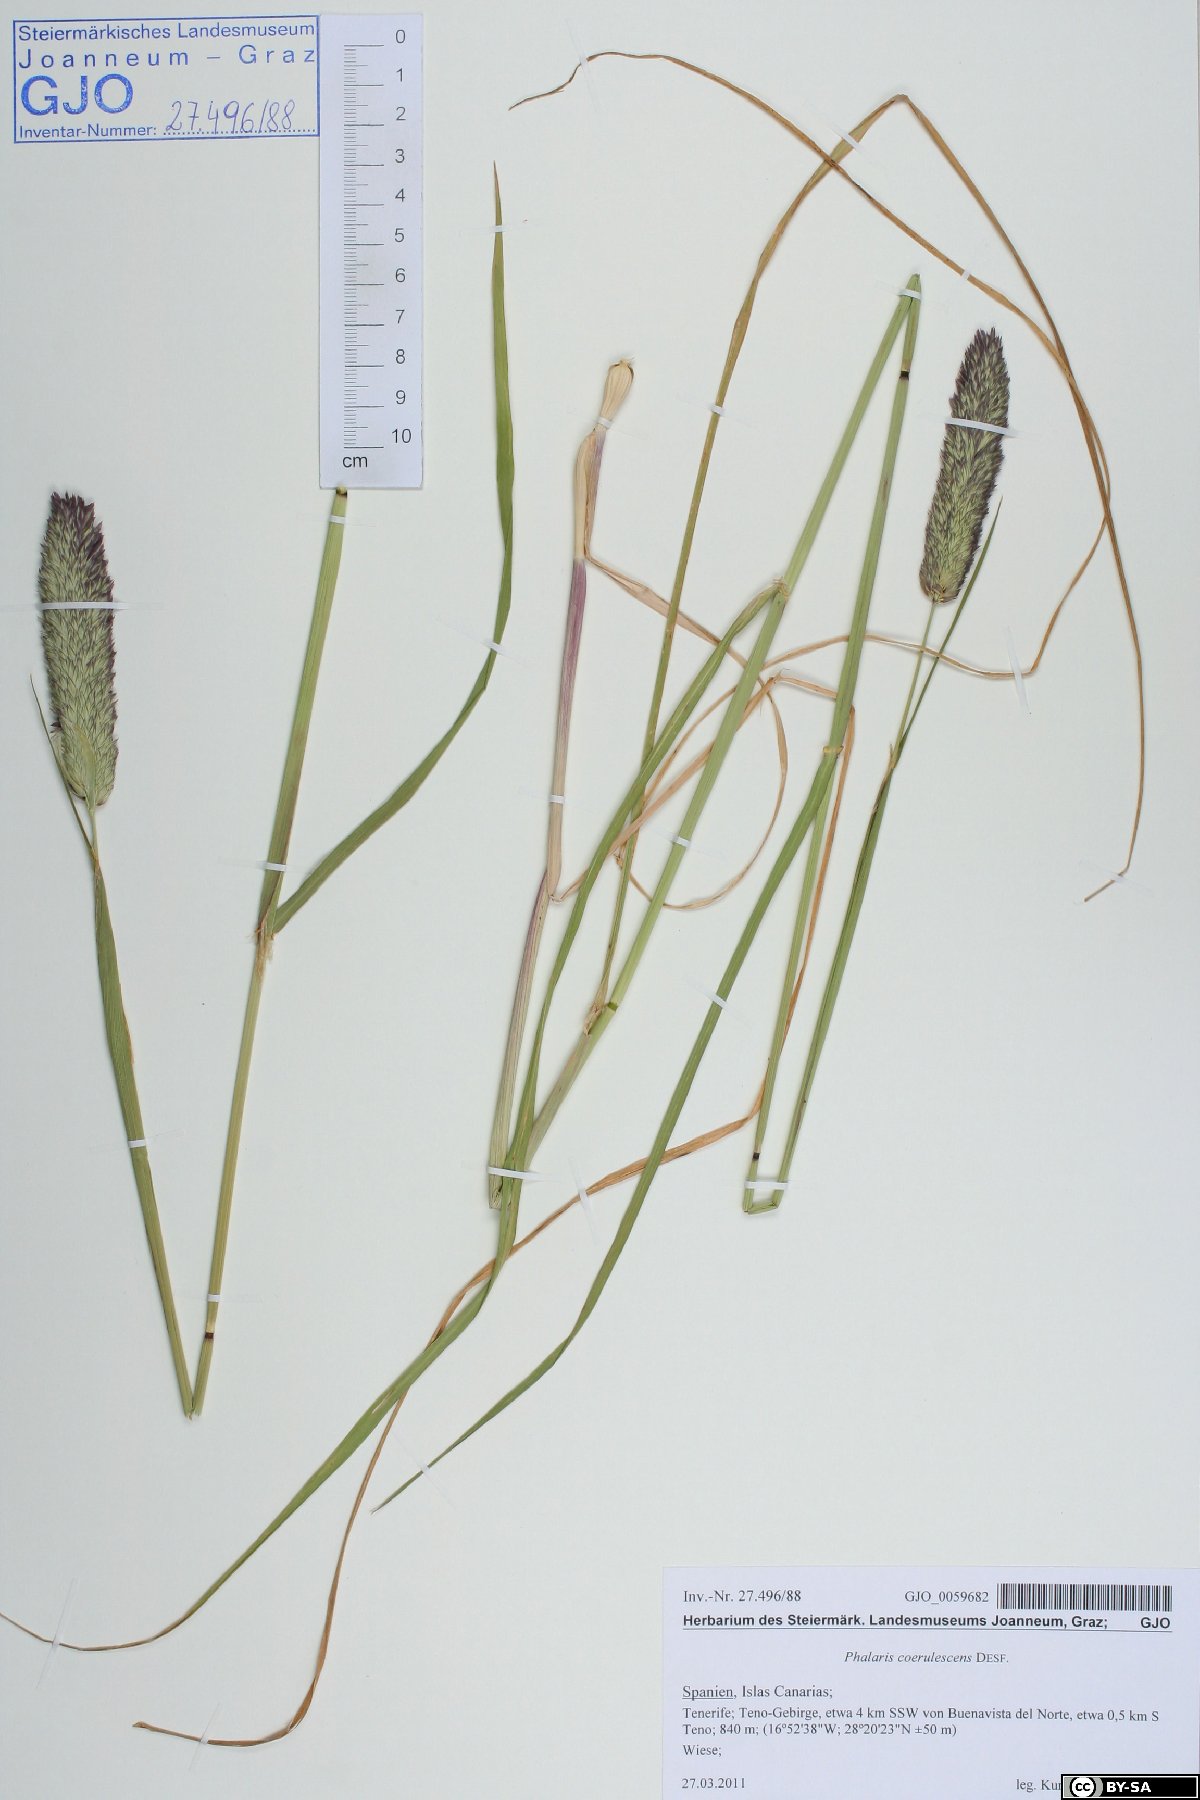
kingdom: Plantae
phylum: Tracheophyta
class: Liliopsida
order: Poales
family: Poaceae
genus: Phalaris
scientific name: Phalaris coerulescens
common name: Sunolgrass
